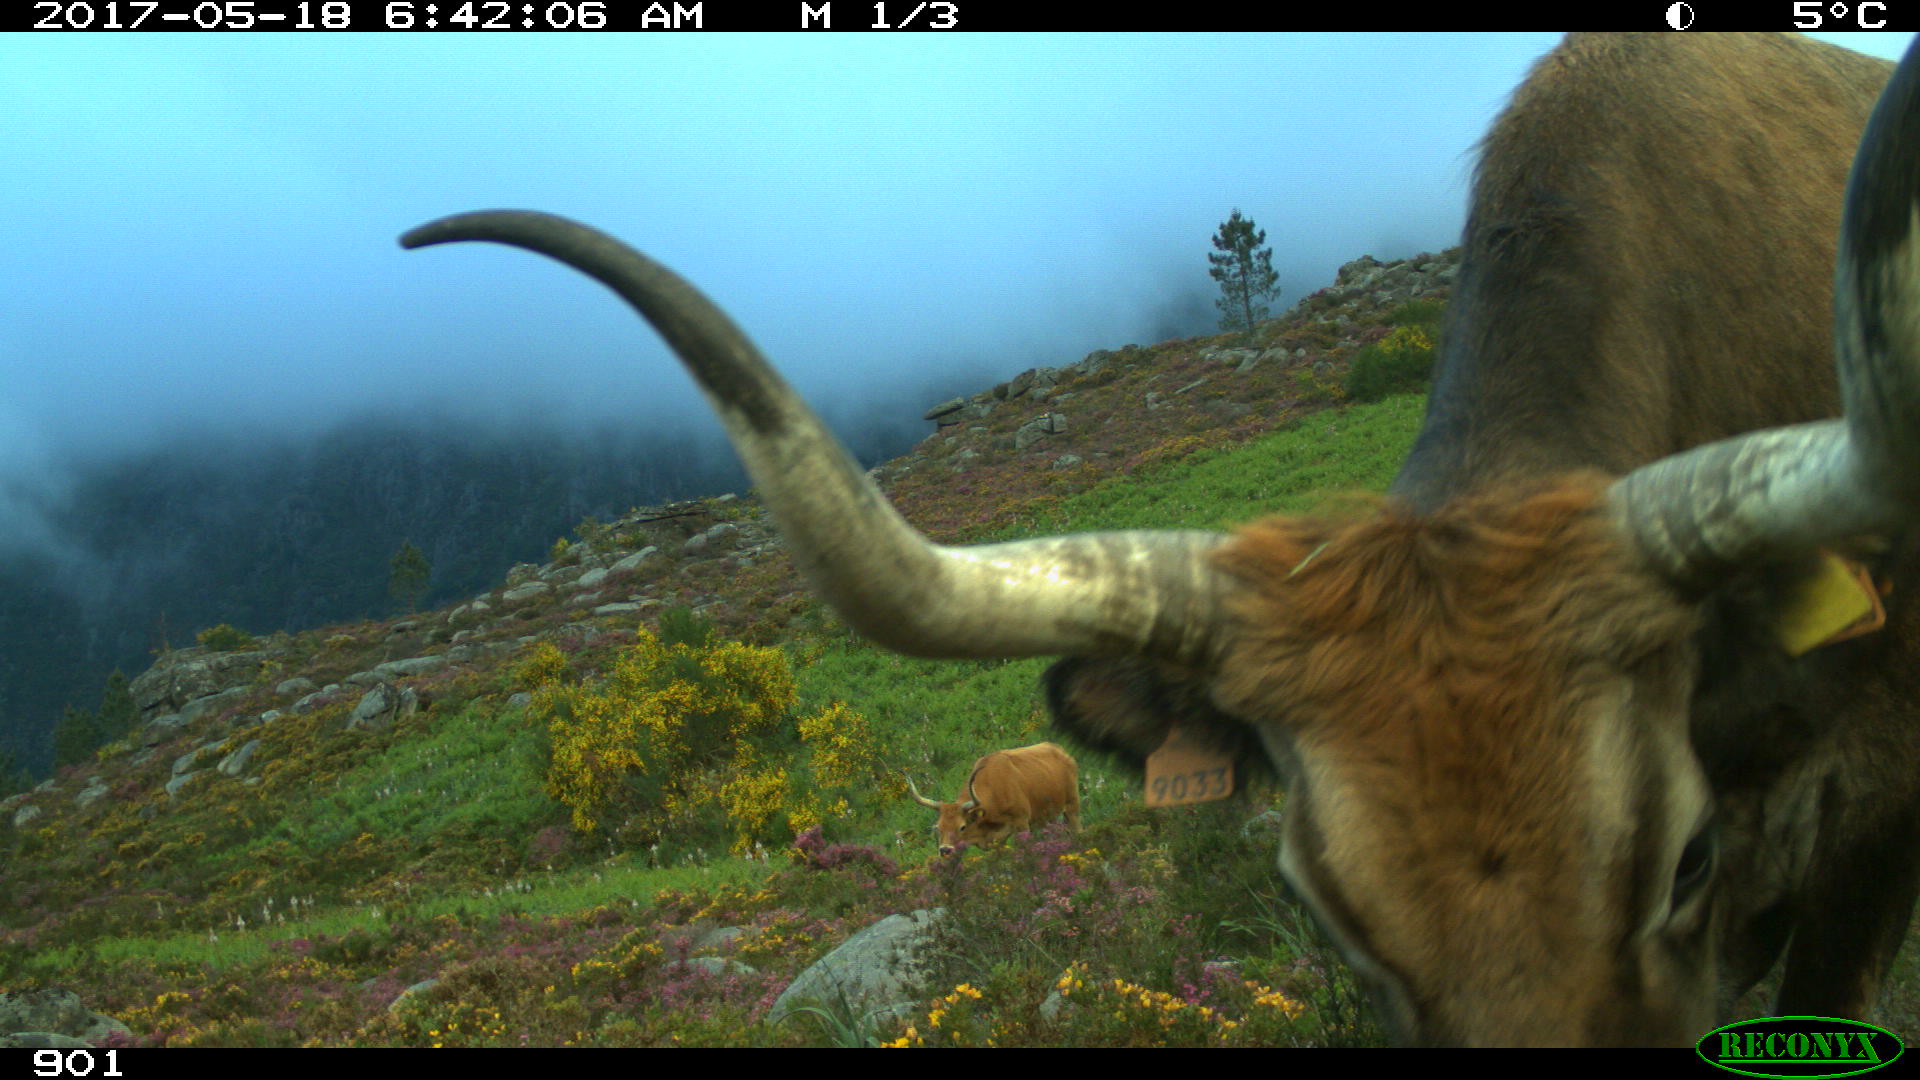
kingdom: Animalia
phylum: Chordata
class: Mammalia
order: Artiodactyla
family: Bovidae
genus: Bos
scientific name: Bos taurus
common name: Domesticated cattle
